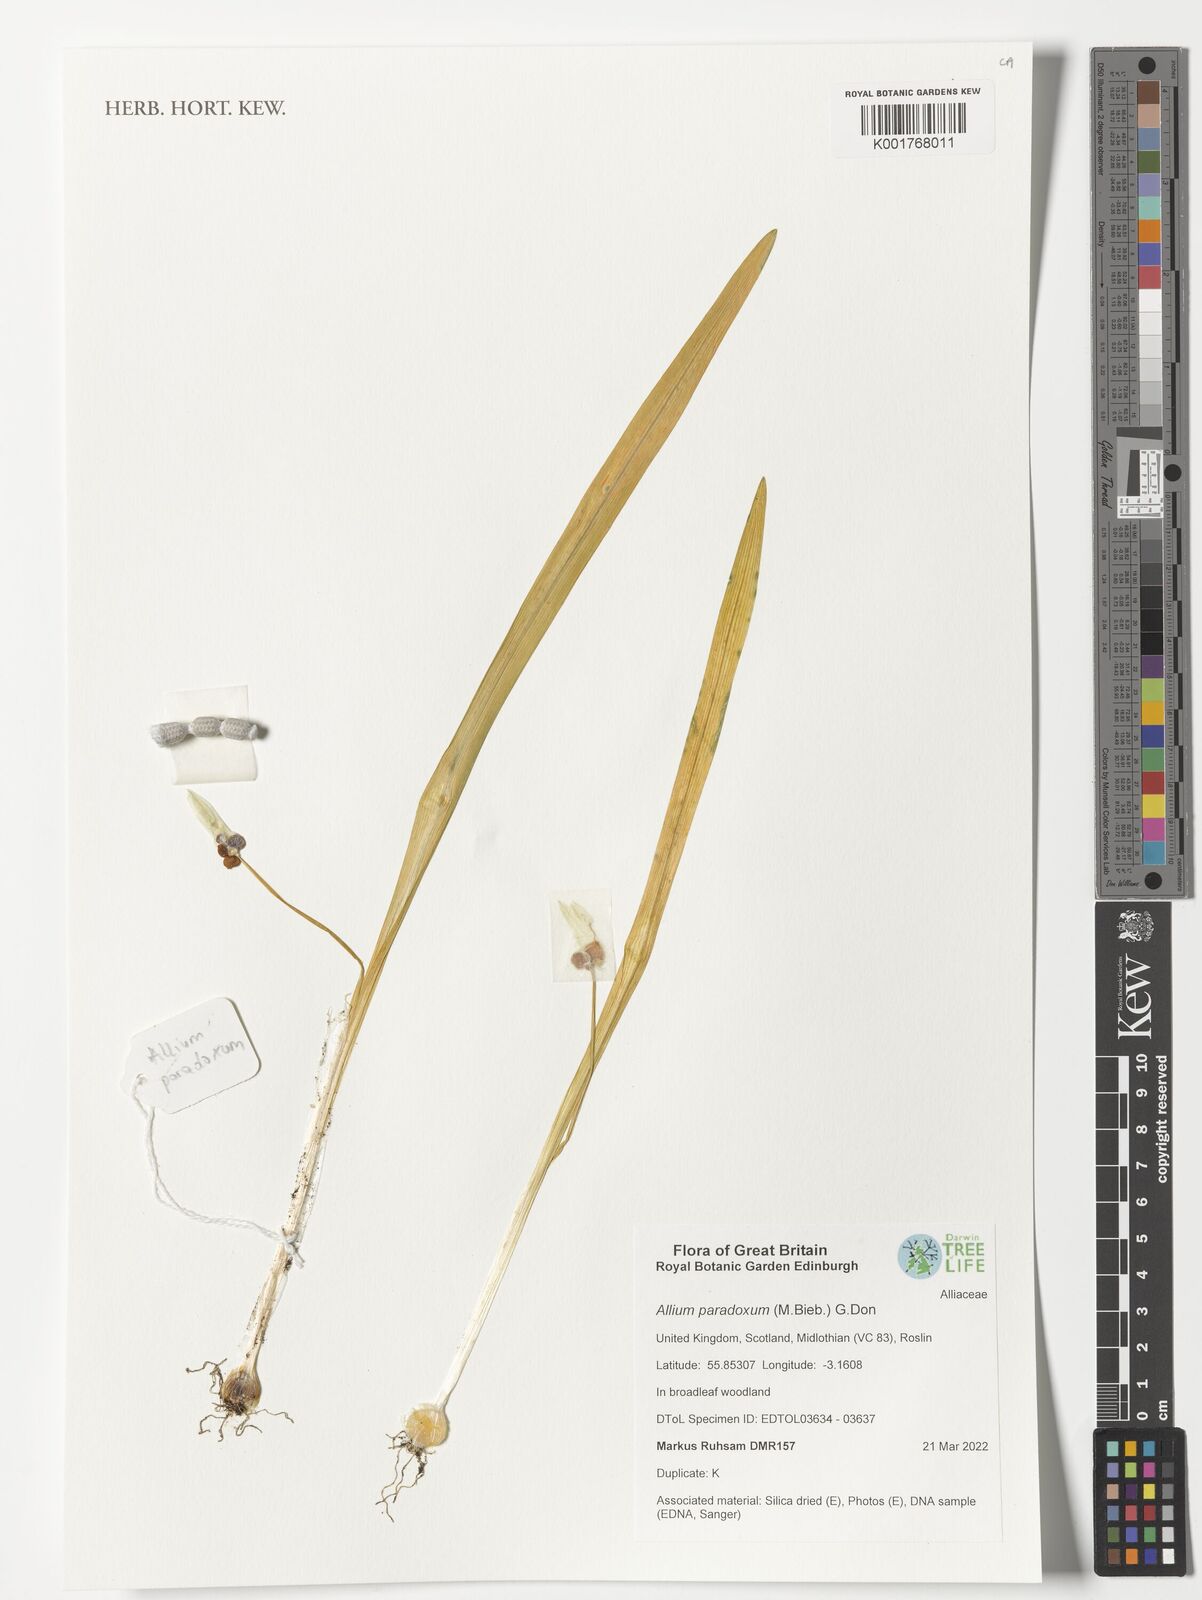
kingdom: Plantae
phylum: Tracheophyta
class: Liliopsida
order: Asparagales
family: Amaryllidaceae
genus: Allium
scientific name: Allium paradoxum
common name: Few-flowered garlic
